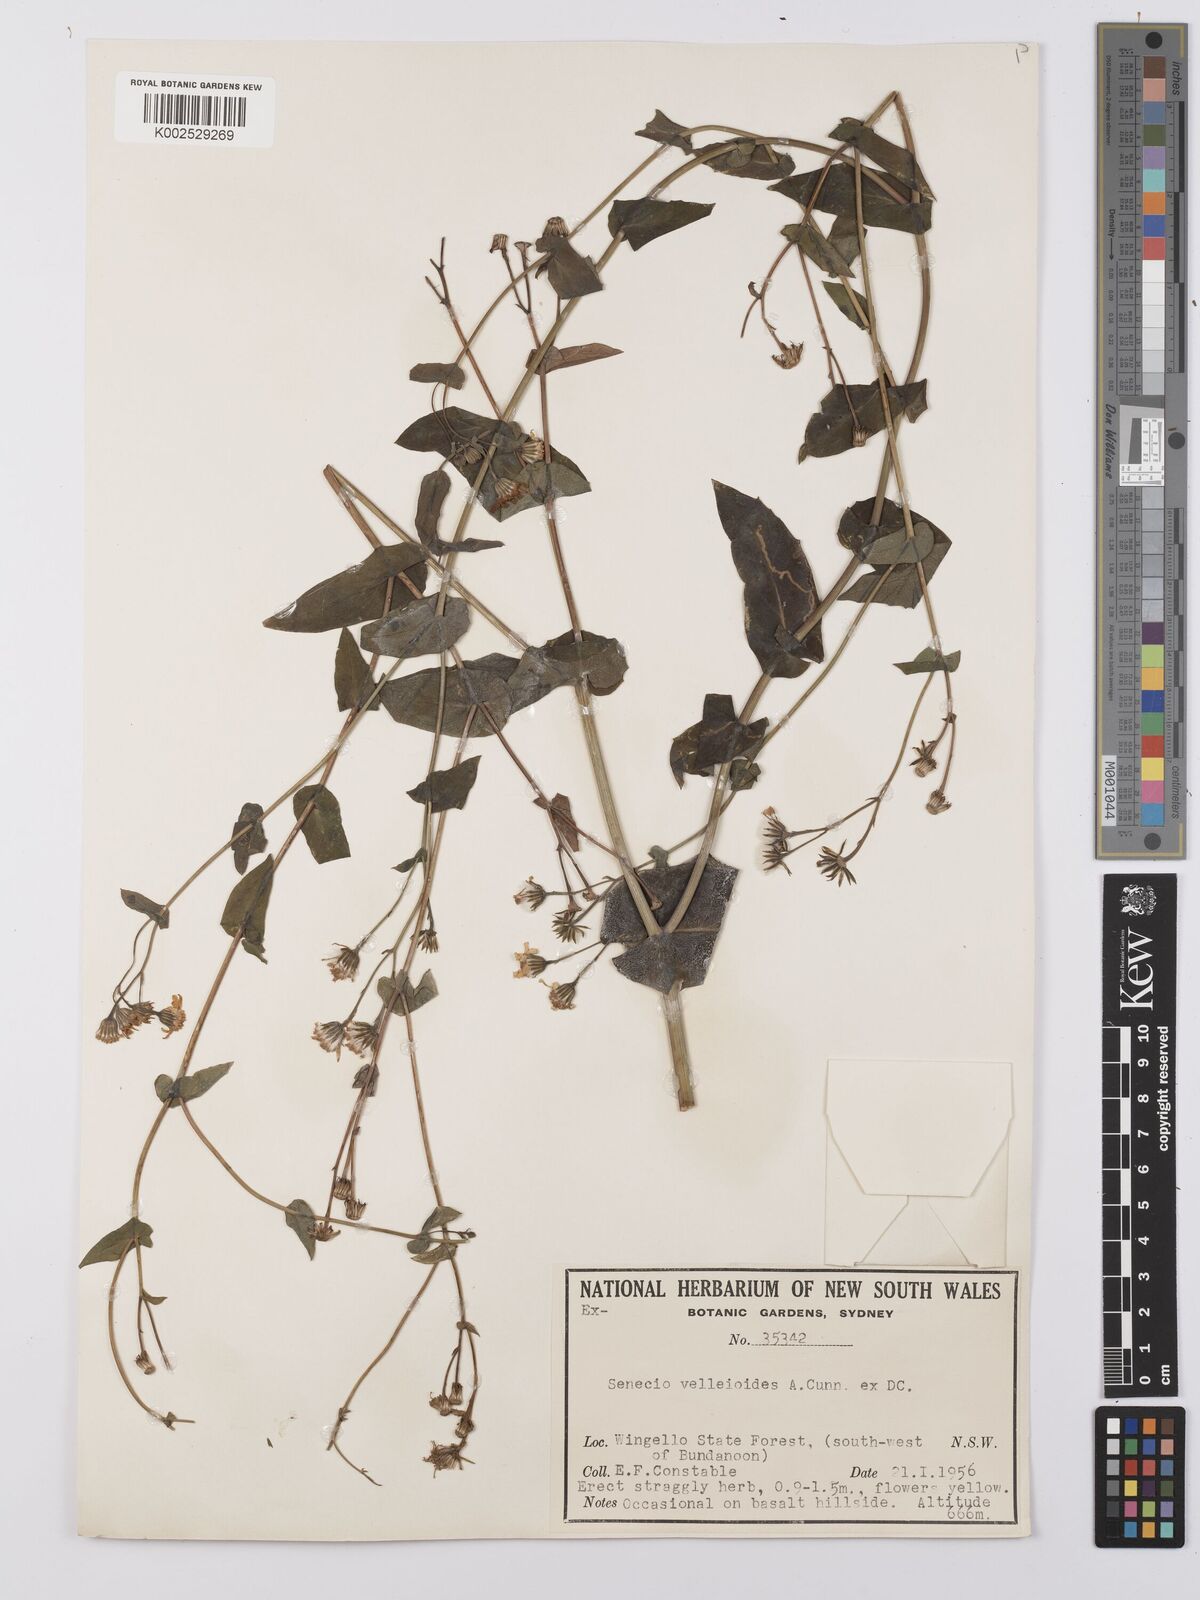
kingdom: Plantae
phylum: Tracheophyta
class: Magnoliopsida
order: Asterales
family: Asteraceae
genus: Lordhowea
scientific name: Lordhowea velleioides
